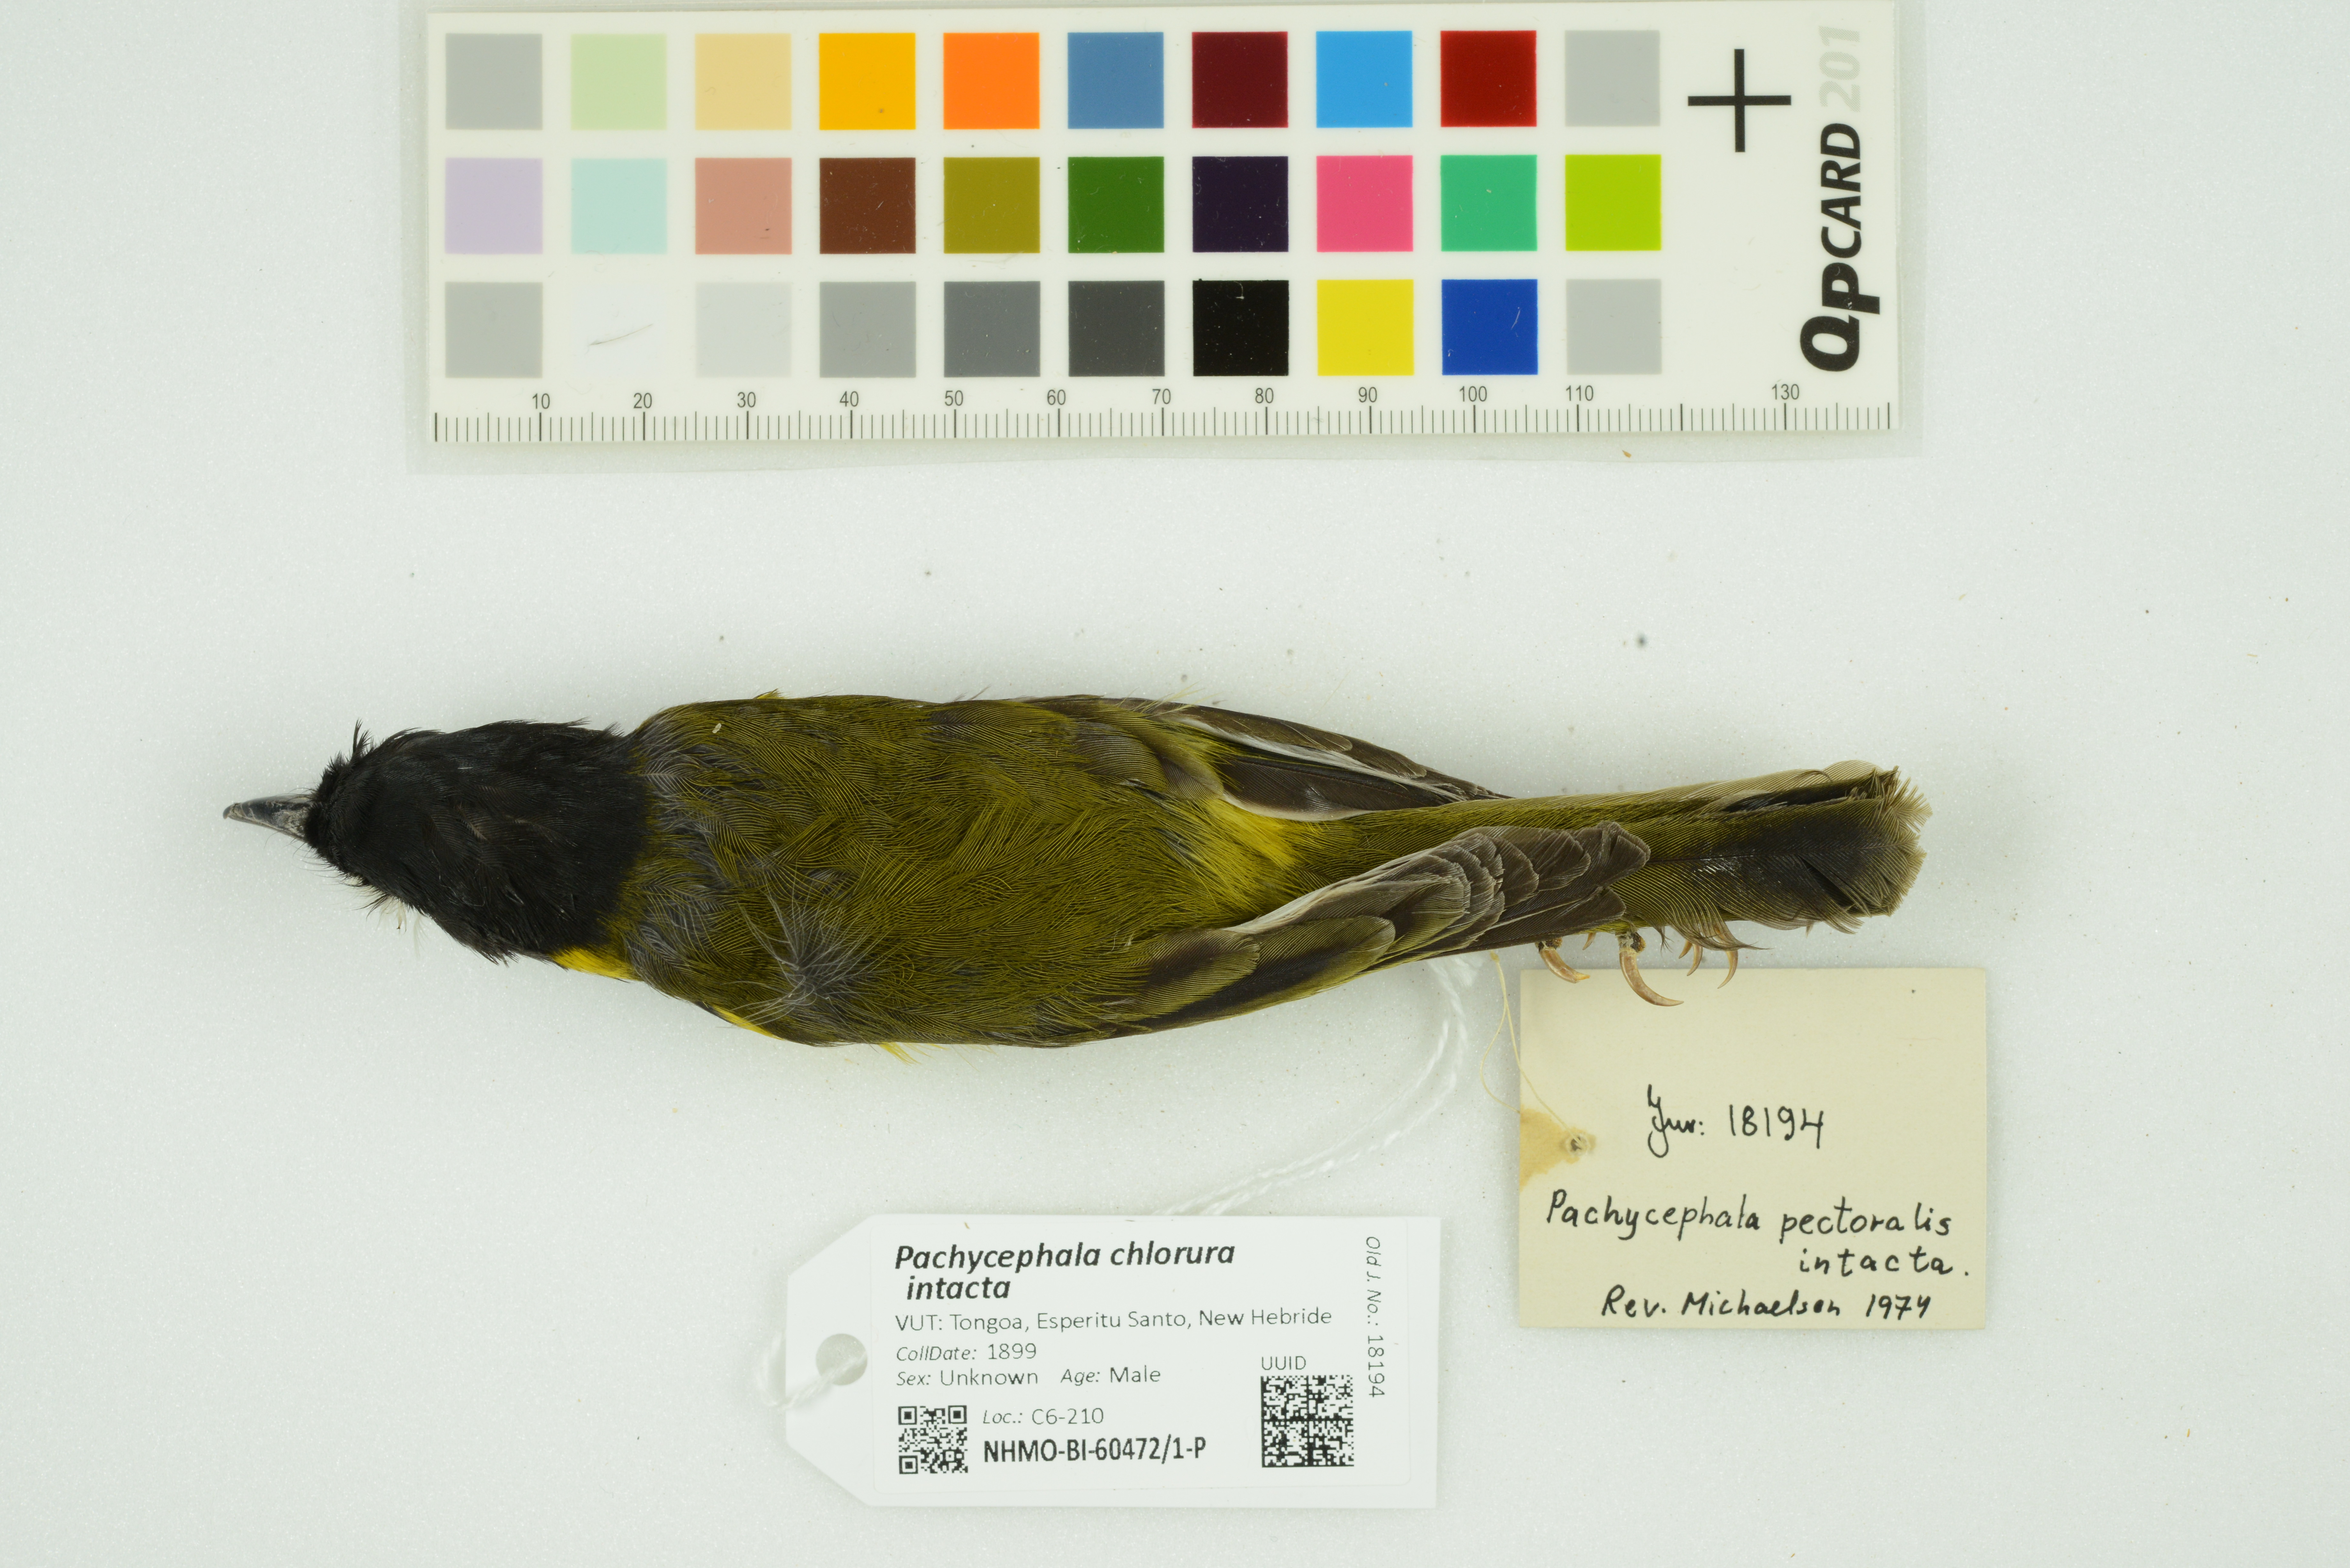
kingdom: Animalia
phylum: Chordata
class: Aves
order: Passeriformes
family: Pachycephalidae
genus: Pachycephala
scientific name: Pachycephala chlorura
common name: Melanesian whistler
